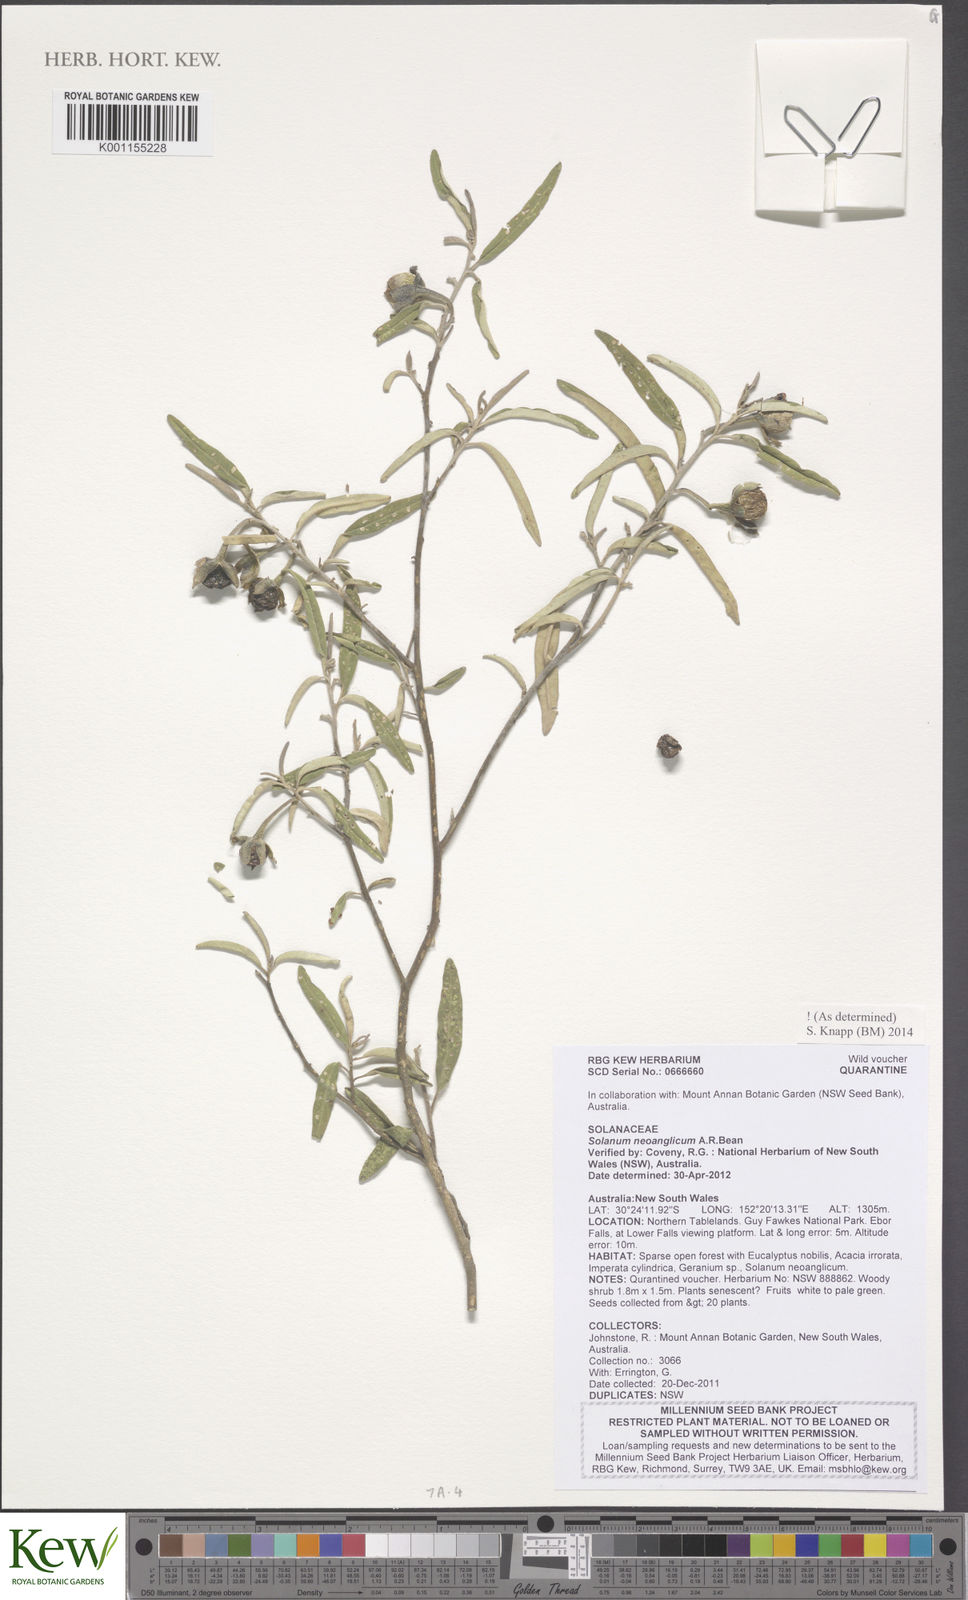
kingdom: Plantae
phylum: Tracheophyta
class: Magnoliopsida
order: Solanales
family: Solanaceae
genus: Solanum
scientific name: Solanum neoanglicum
